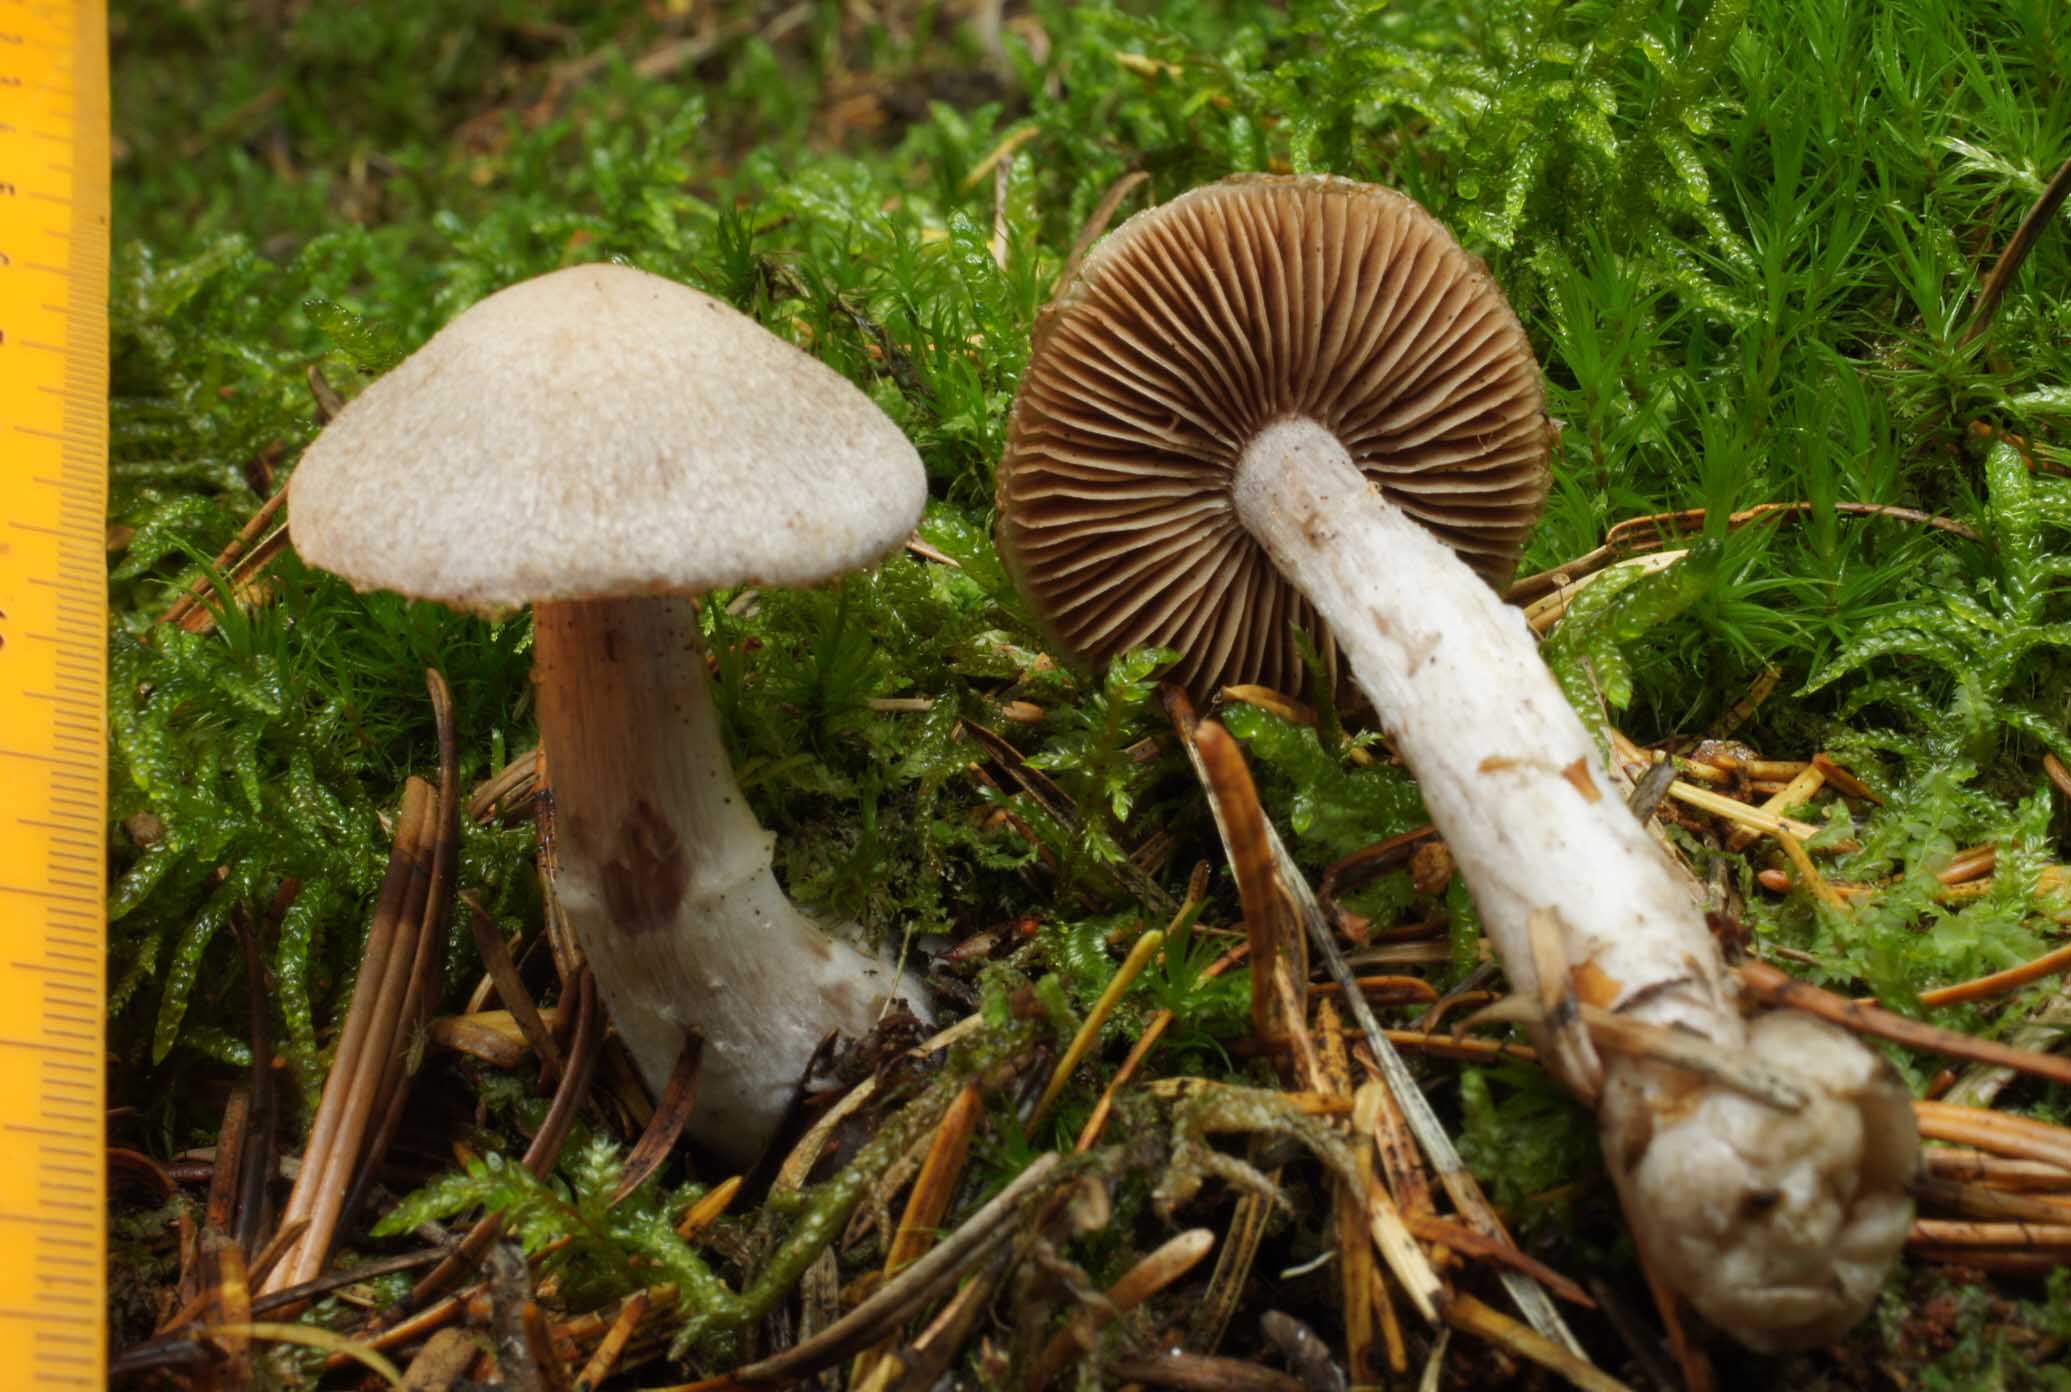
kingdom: Fungi
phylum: Basidiomycota
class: Agaricomycetes
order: Agaricales
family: Cortinariaceae
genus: Cortinarius
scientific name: Cortinarius malachius
